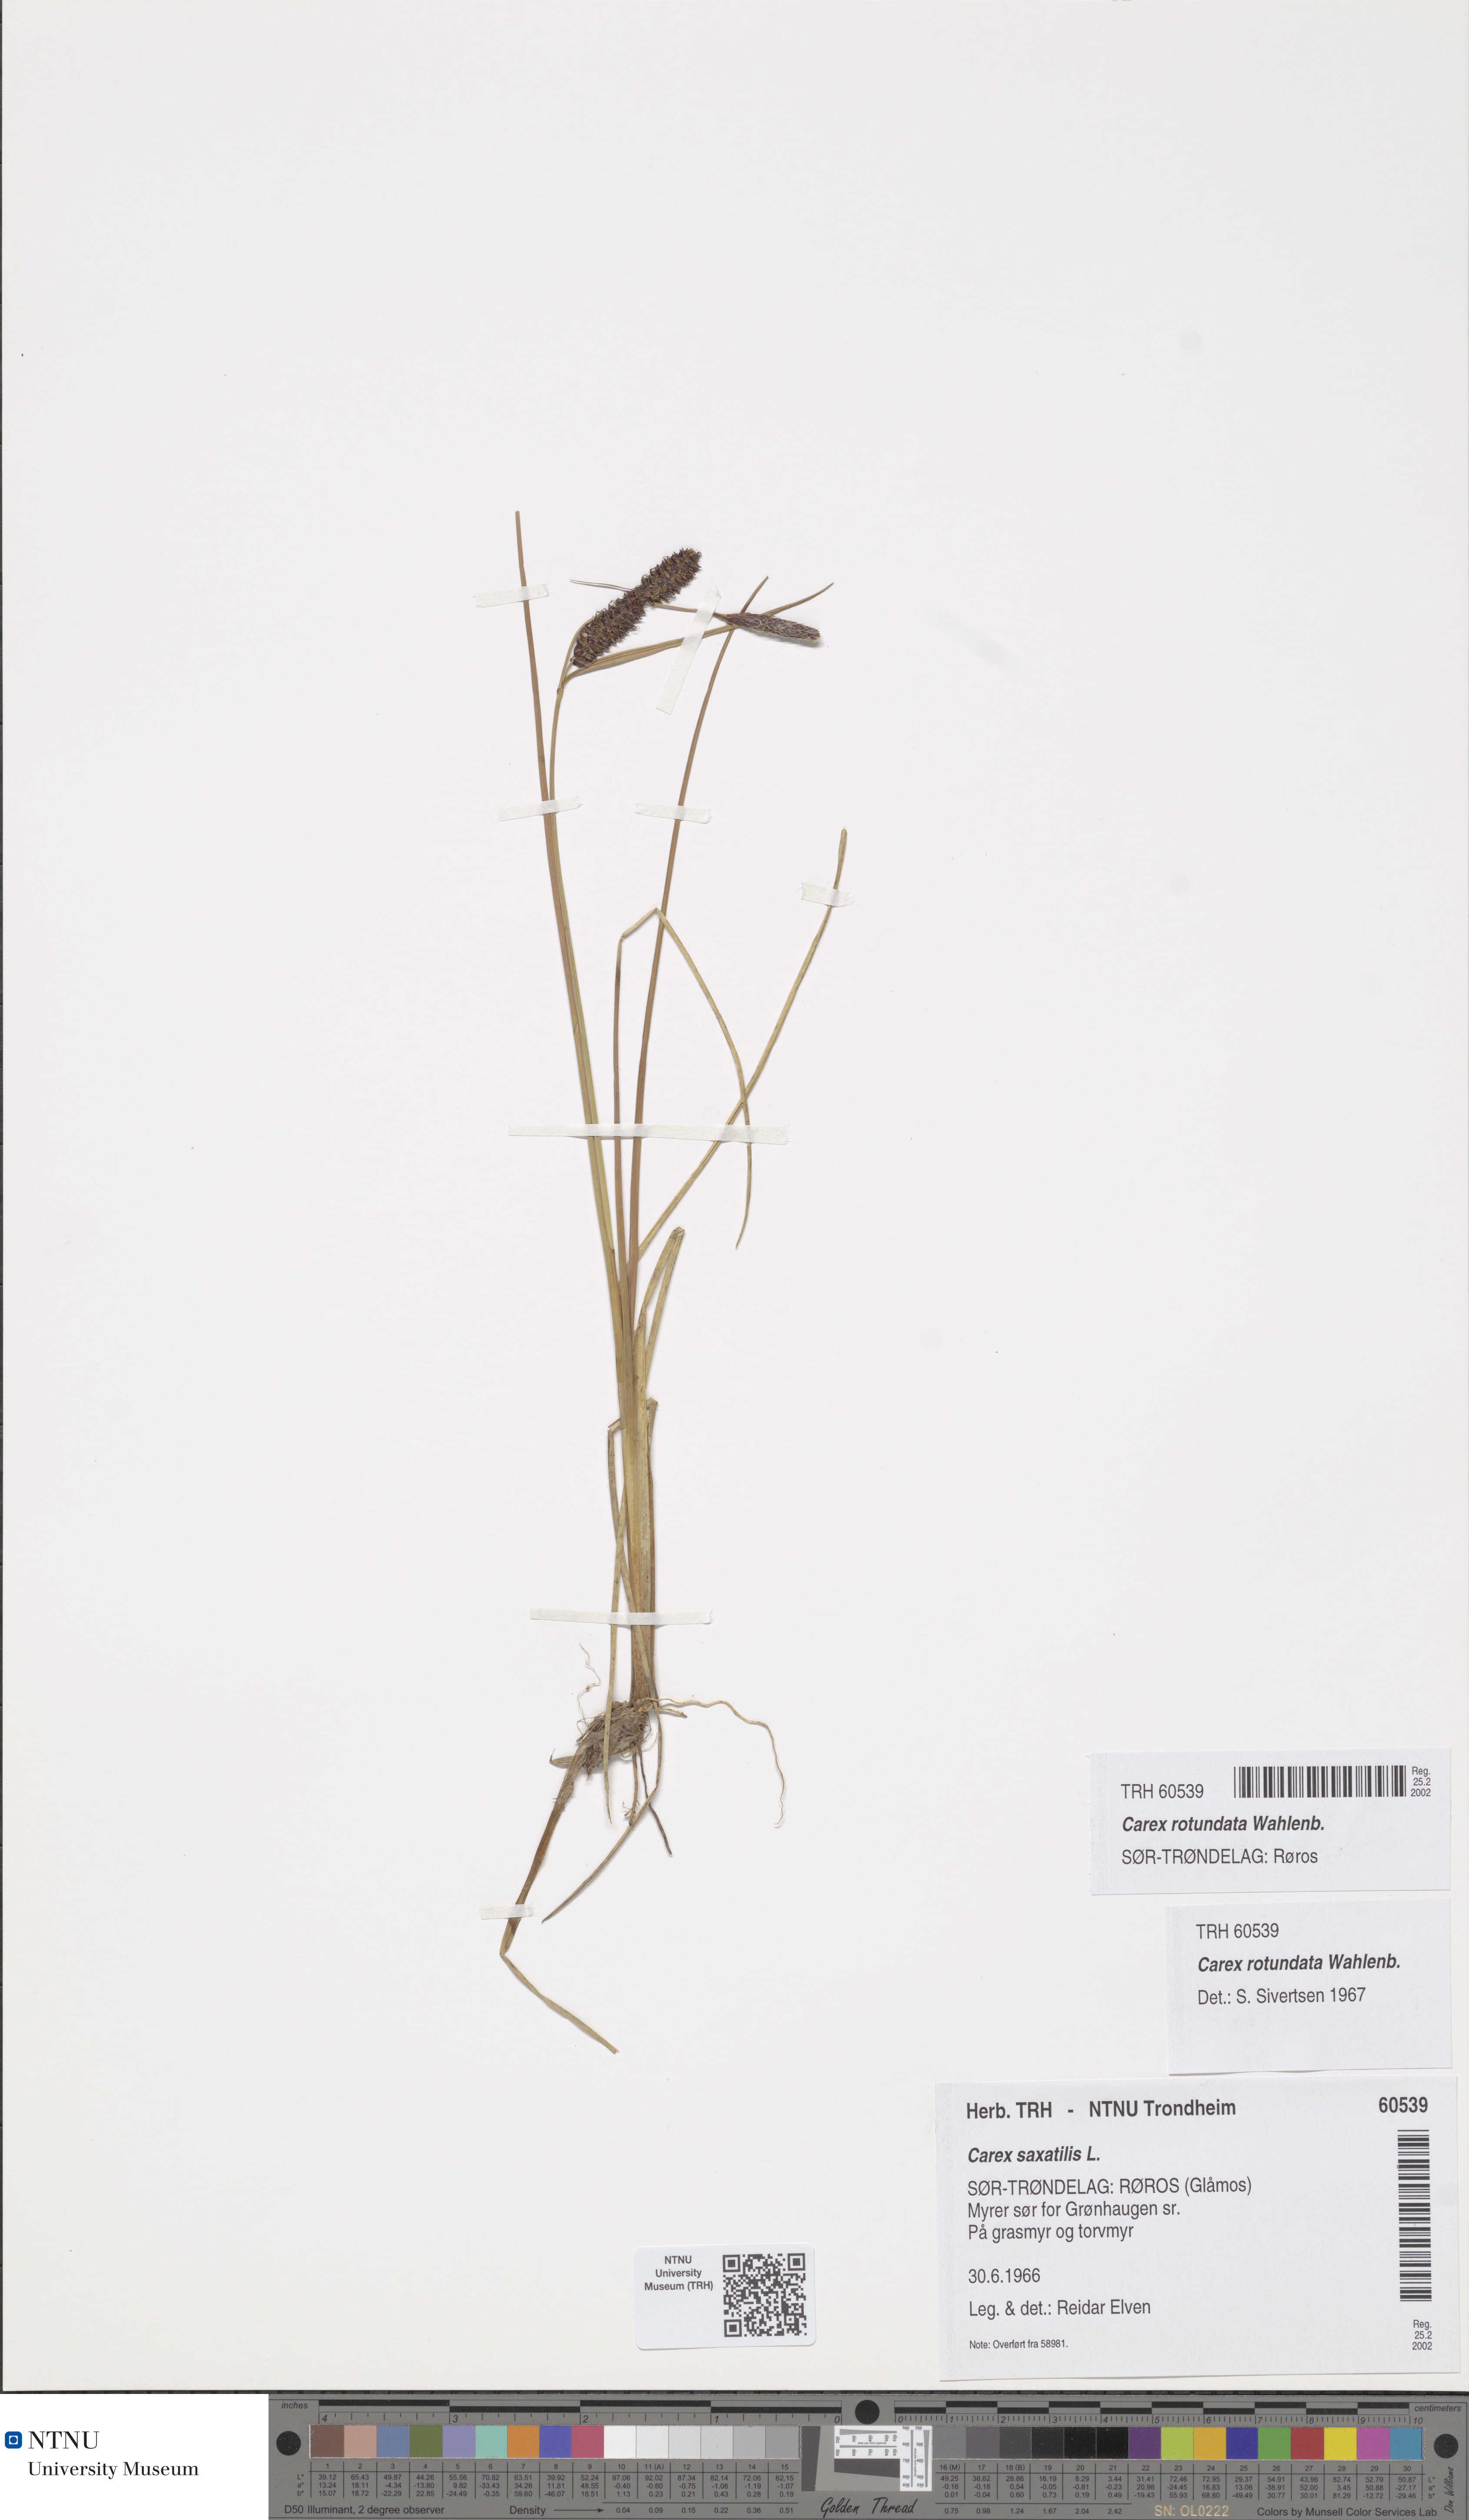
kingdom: Plantae
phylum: Tracheophyta
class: Liliopsida
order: Poales
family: Cyperaceae
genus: Carex
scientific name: Carex rotundata
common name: Round-fruited sedge
